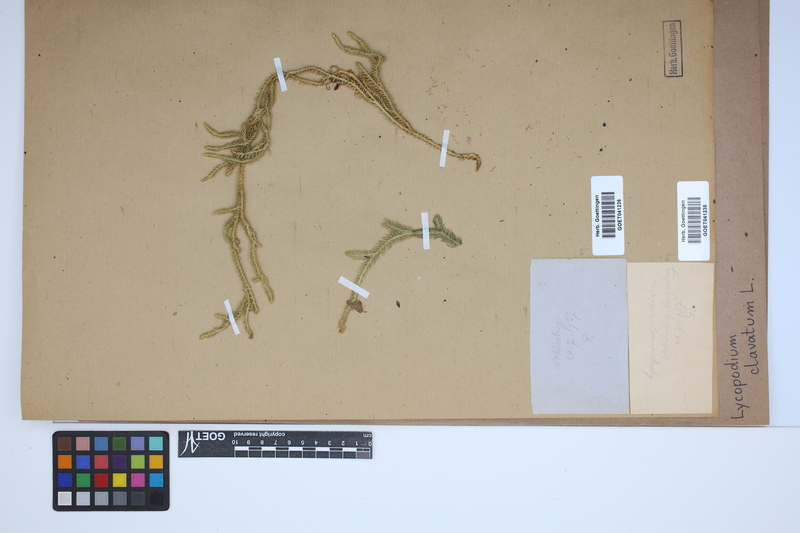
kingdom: Plantae
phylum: Tracheophyta
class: Lycopodiopsida
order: Lycopodiales
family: Lycopodiaceae
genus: Lycopodium
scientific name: Lycopodium clavatum
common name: Stag's-horn clubmoss
